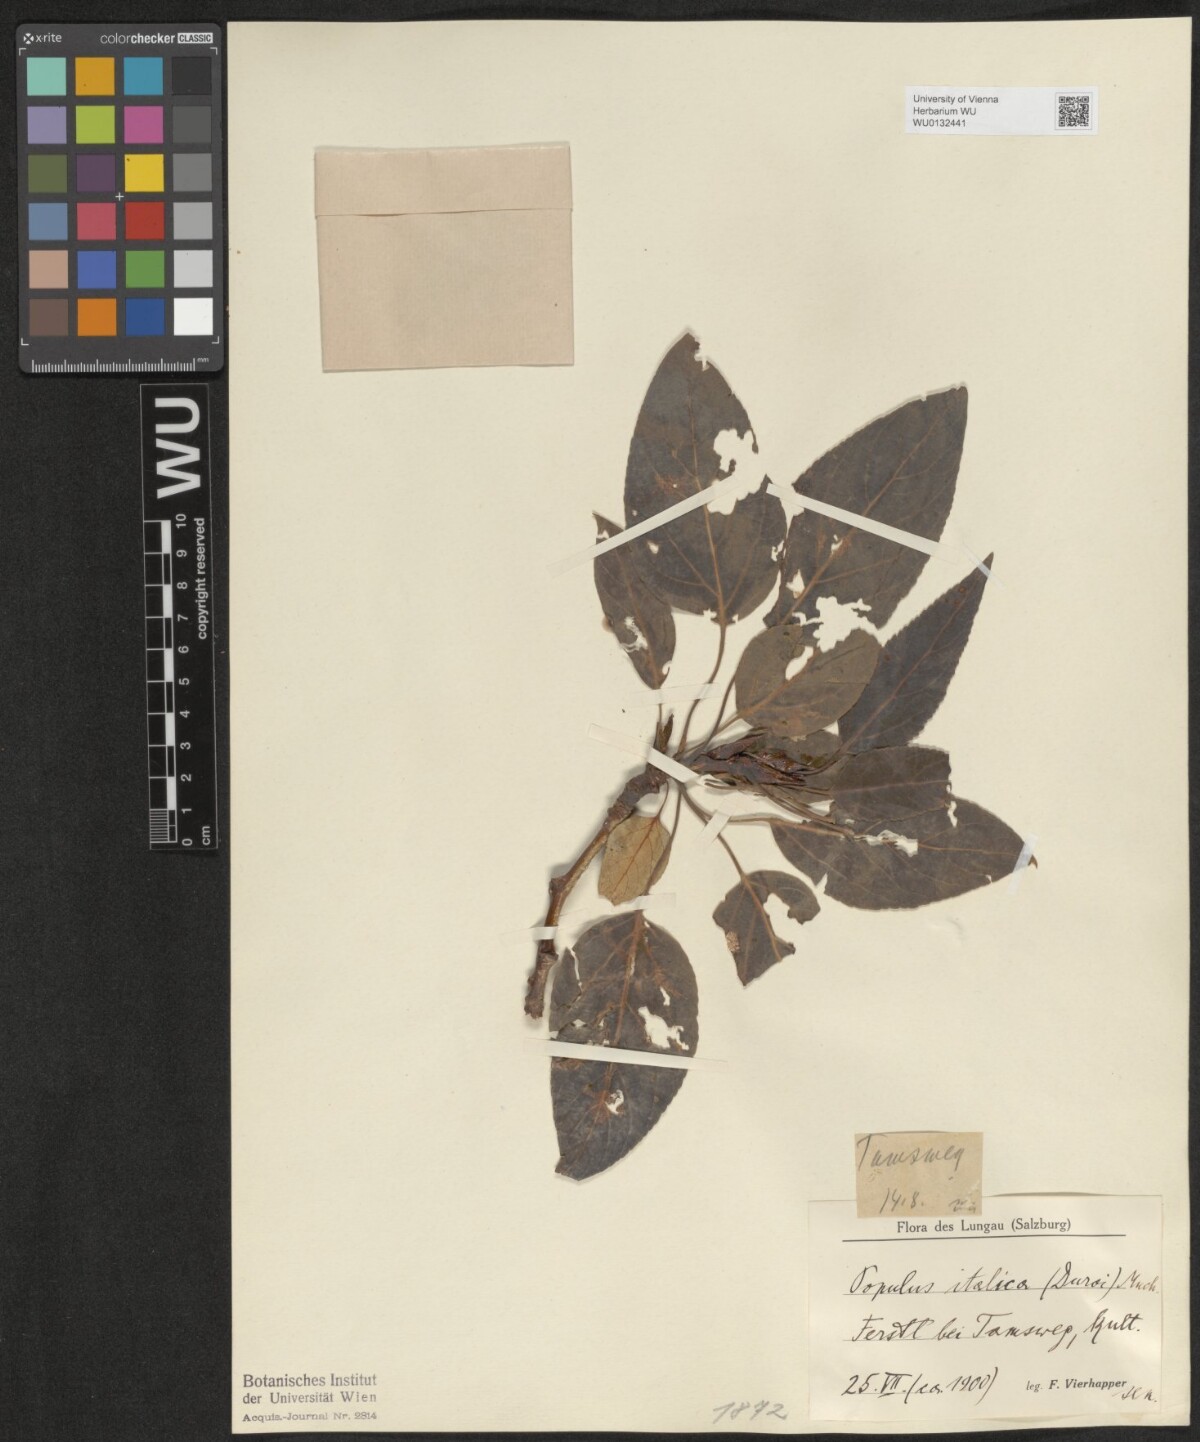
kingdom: Plantae
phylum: Tracheophyta
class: Magnoliopsida
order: Malpighiales
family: Salicaceae
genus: Populus
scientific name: Populus trichocarpa
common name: Black cottonwood
